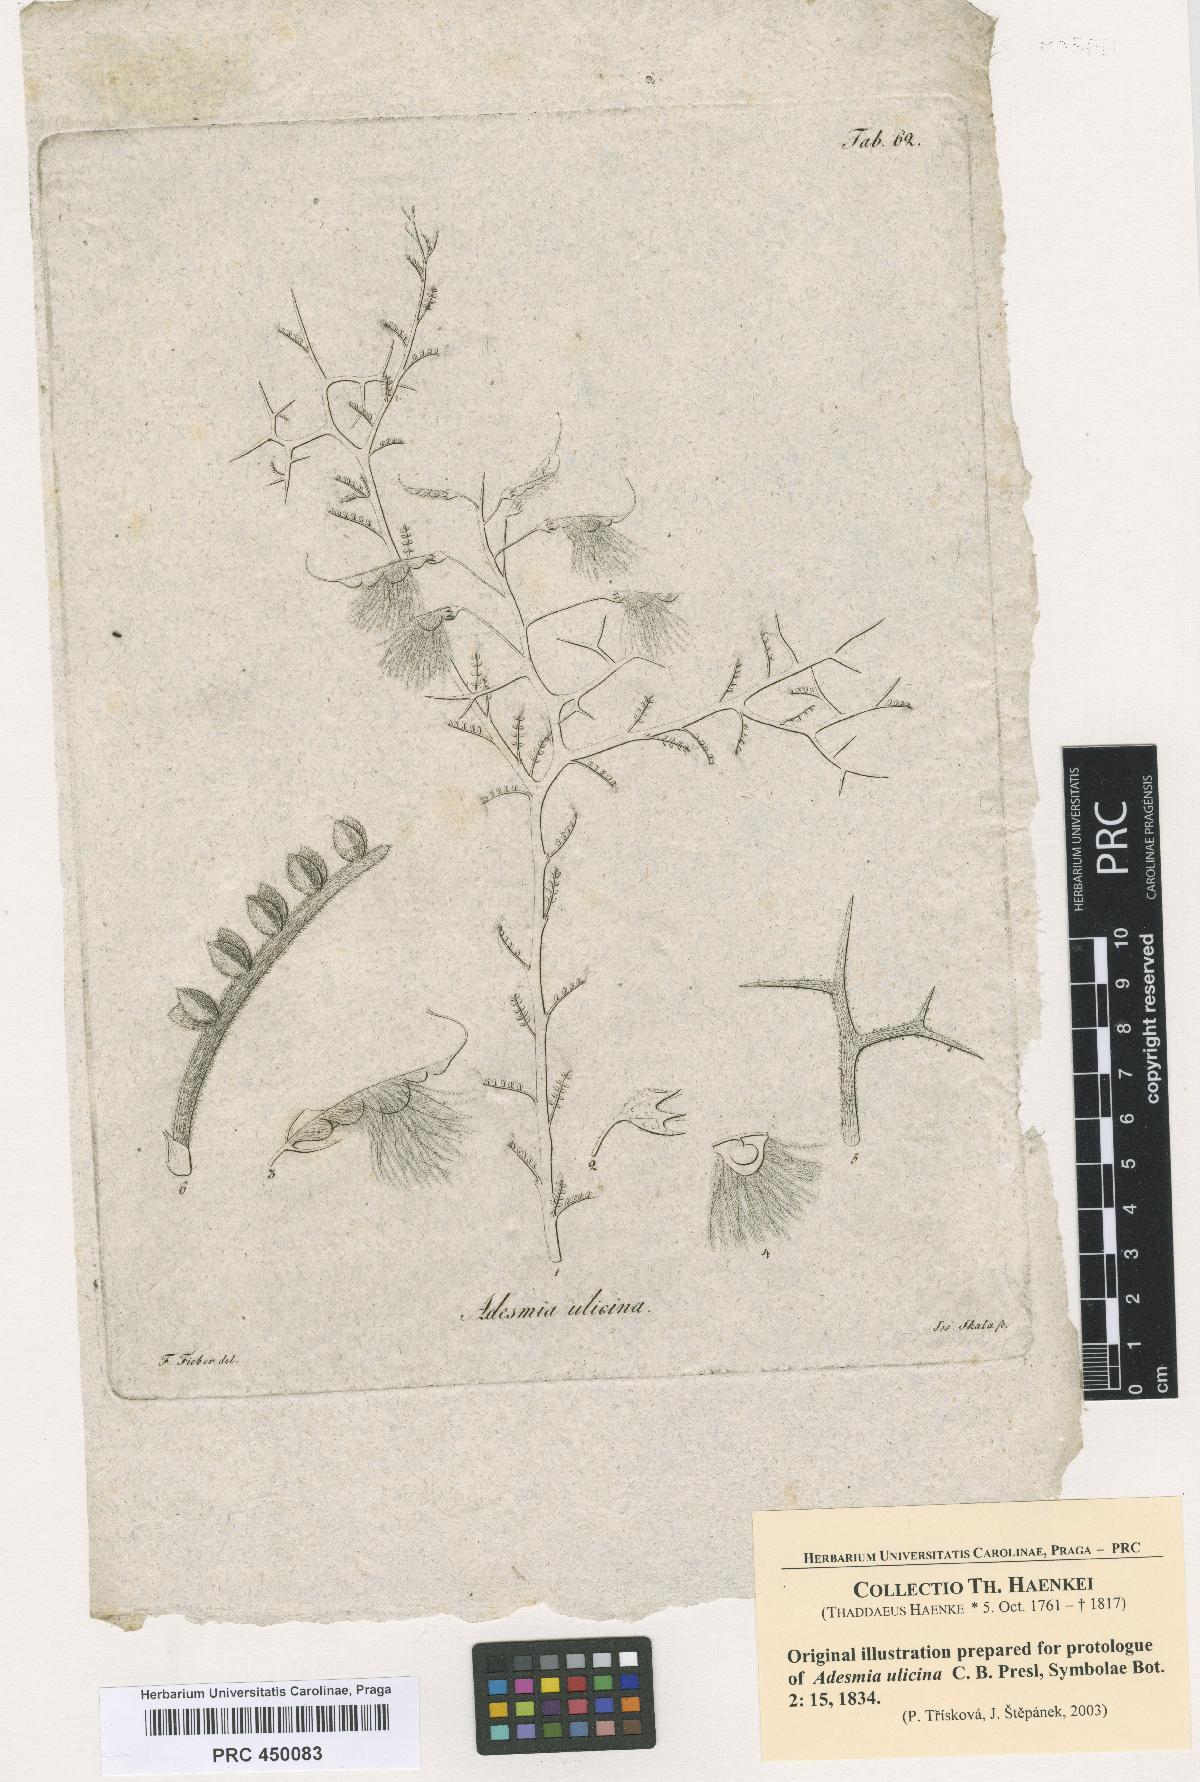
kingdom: Plantae
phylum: Tracheophyta
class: Magnoliopsida
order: Fabales
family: Fabaceae
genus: Adesmia
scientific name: Adesmia pedicellata
